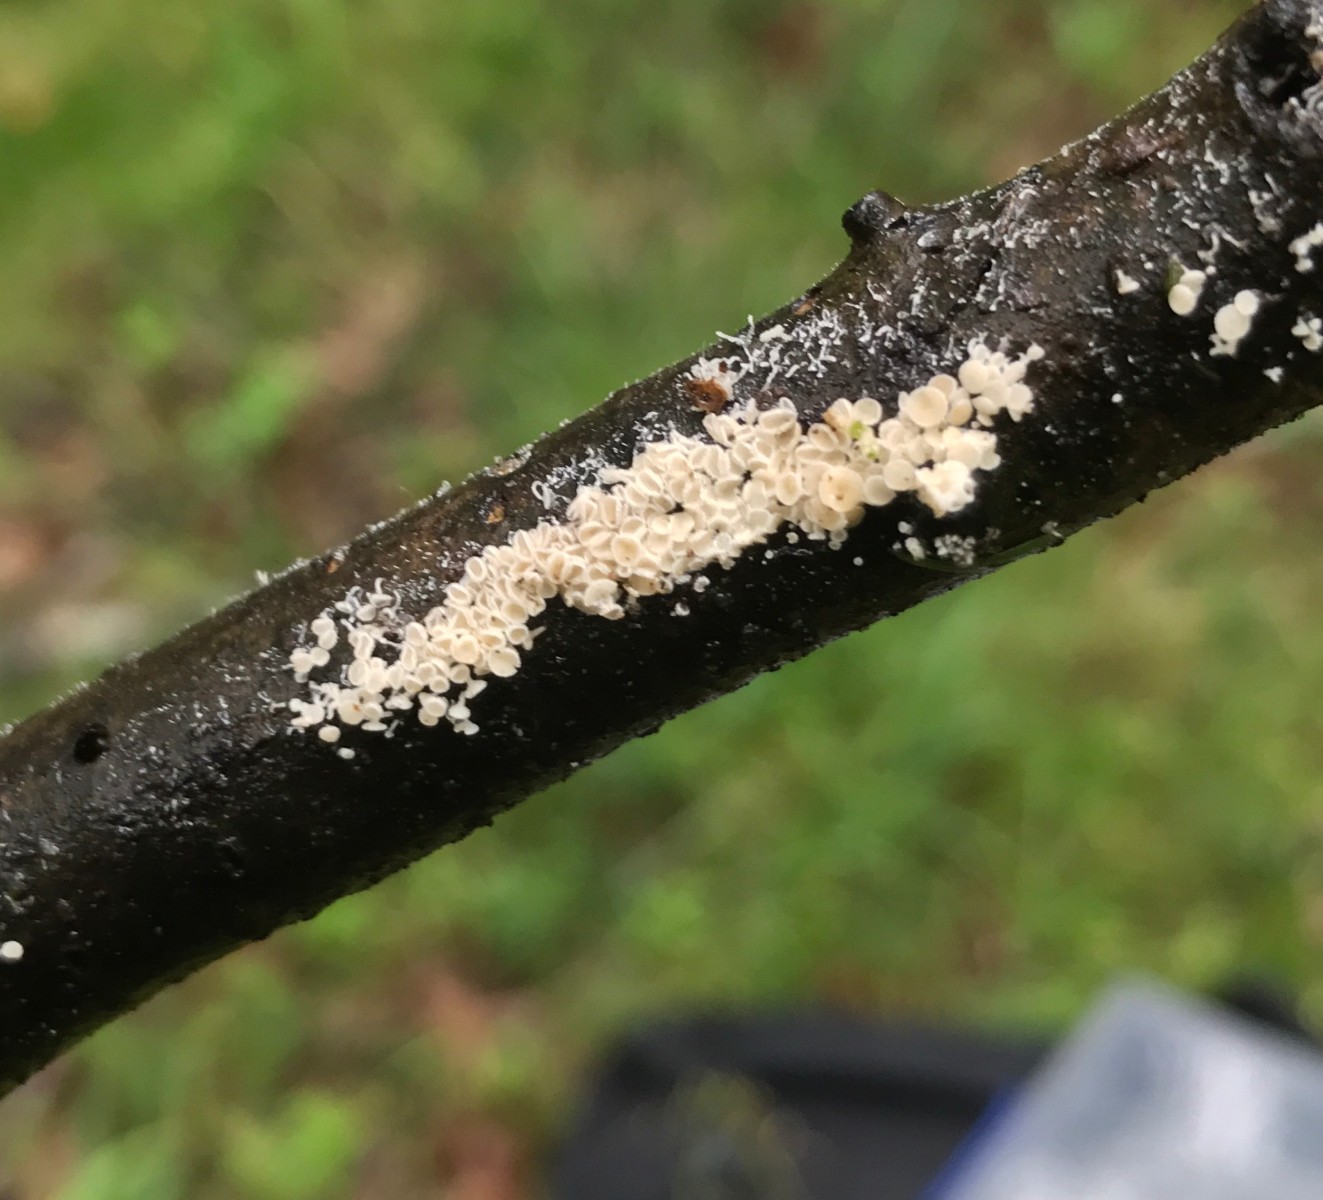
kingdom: Fungi
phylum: Ascomycota
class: Leotiomycetes
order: Helotiales
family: Lachnaceae
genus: Lachnum
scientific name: Lachnum
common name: frynseskive
